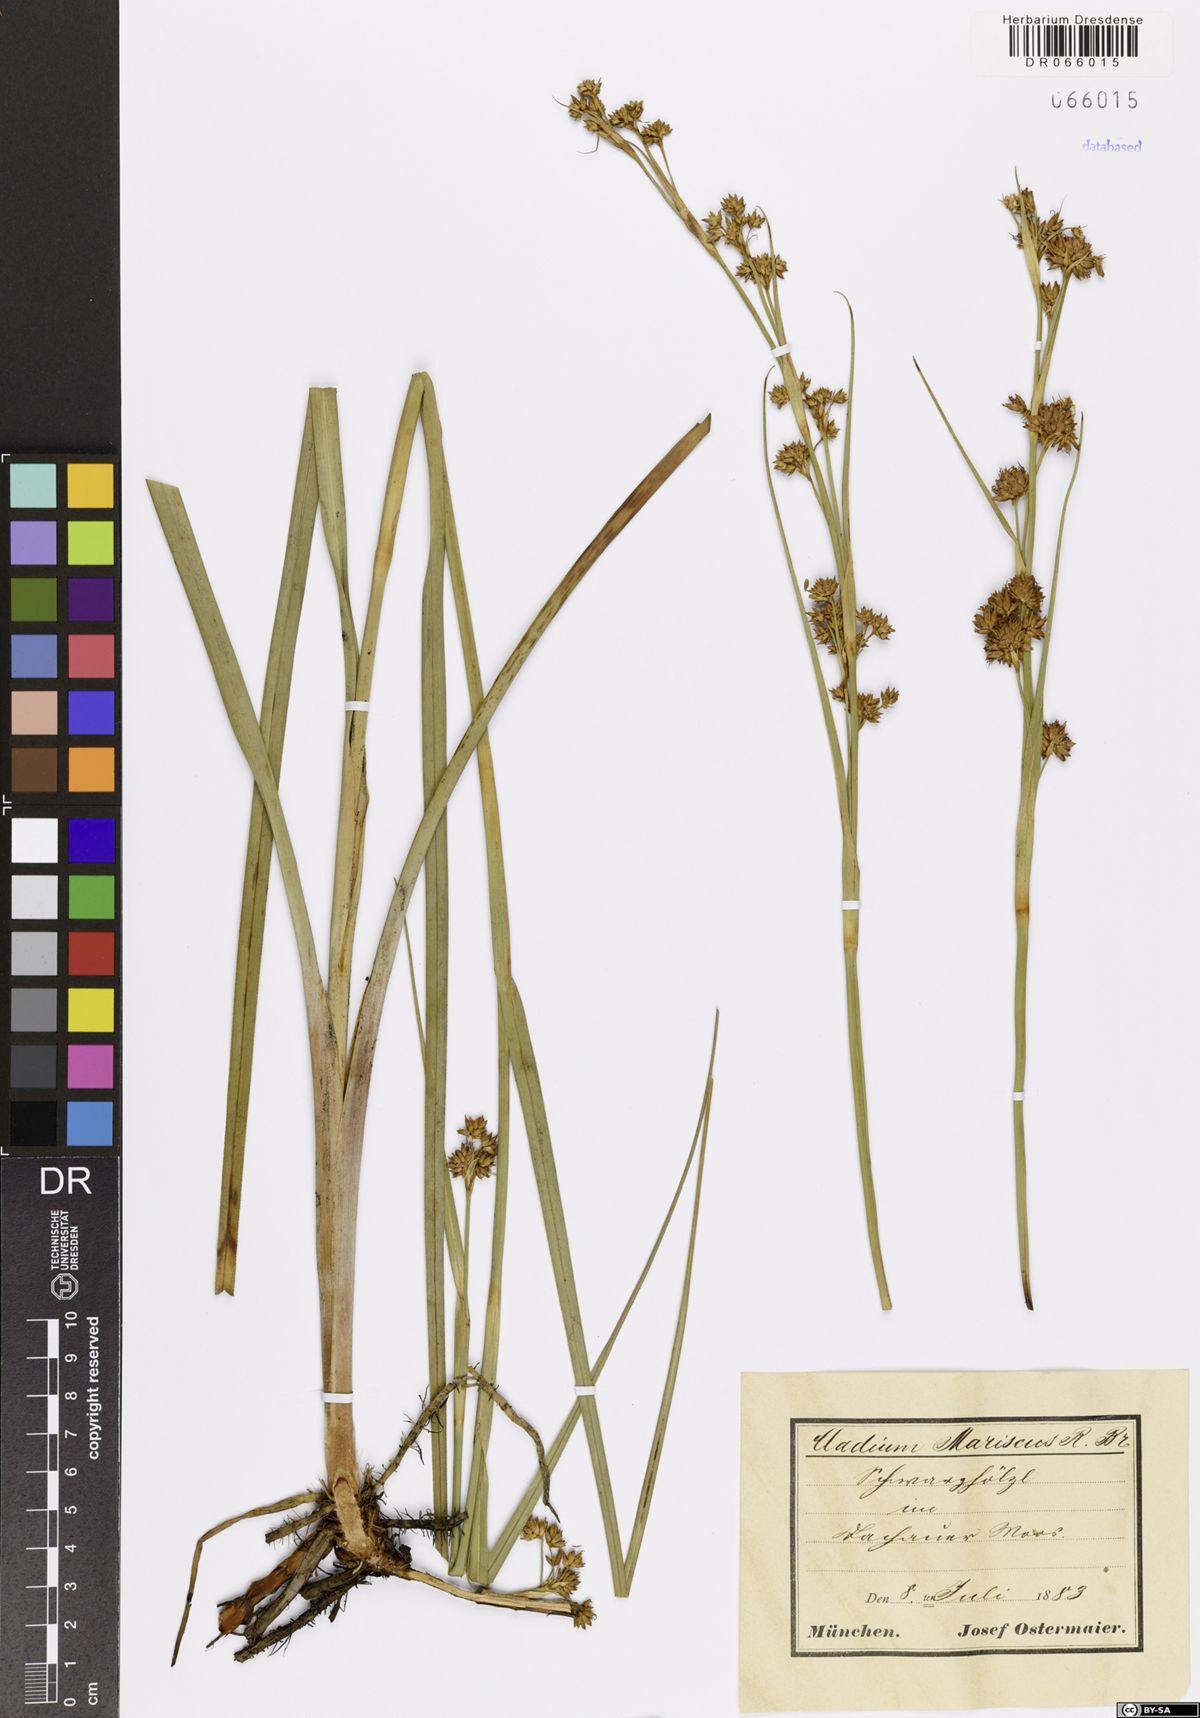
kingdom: Plantae
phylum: Tracheophyta
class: Liliopsida
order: Poales
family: Cyperaceae
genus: Cladium
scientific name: Cladium mariscus
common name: Great fen-sedge
